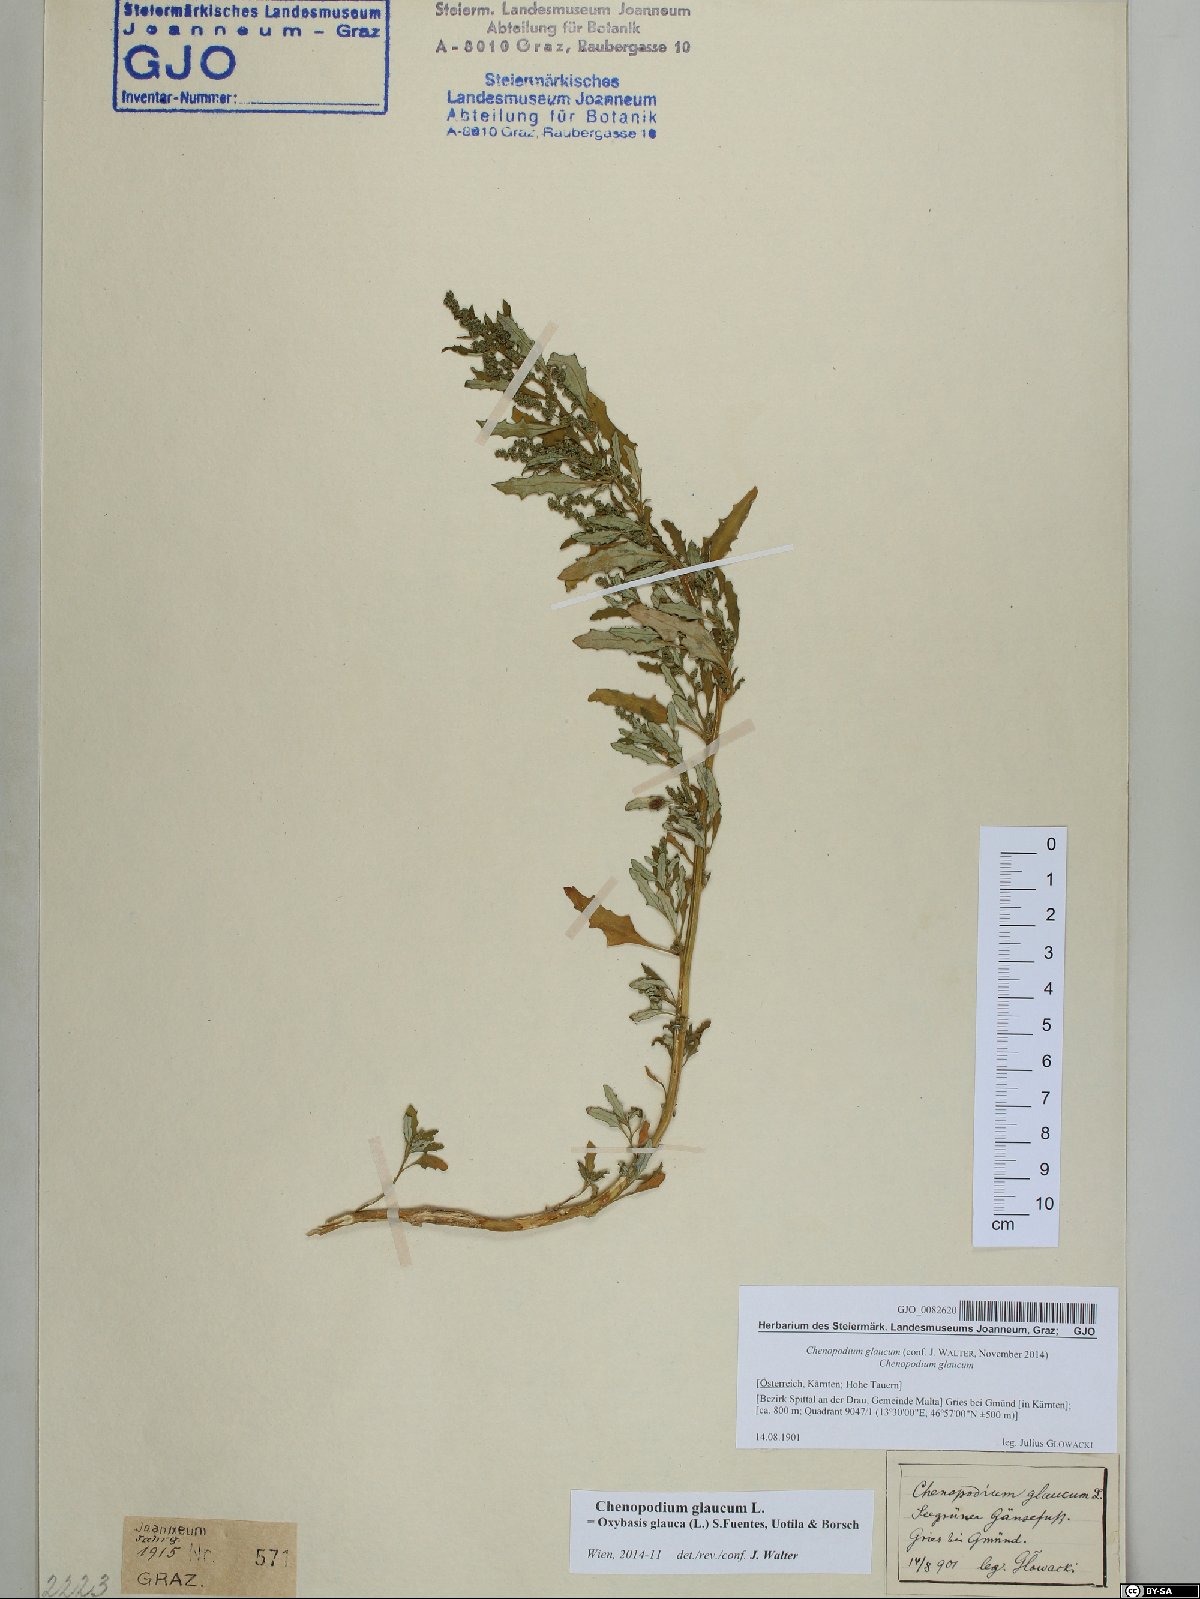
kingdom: Plantae
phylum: Tracheophyta
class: Magnoliopsida
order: Caryophyllales
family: Amaranthaceae
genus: Oxybasis
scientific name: Oxybasis glauca
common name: Glaucous goosefoot
